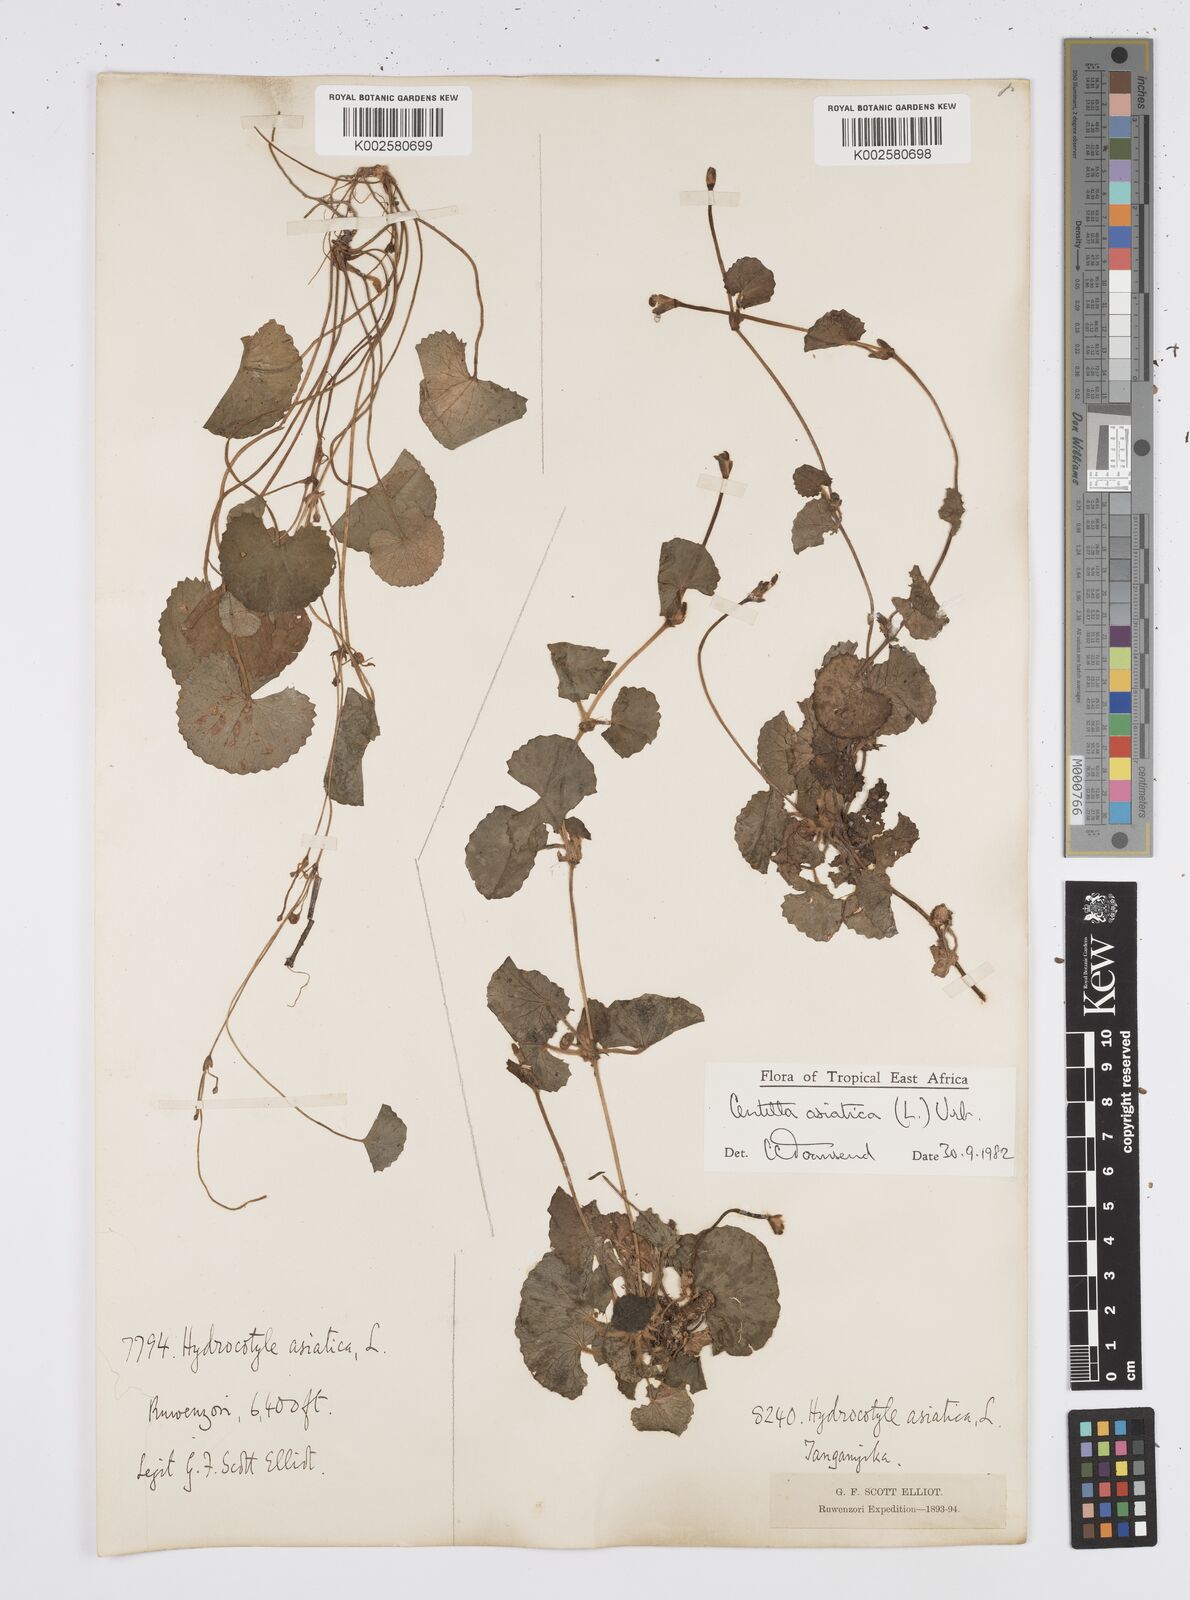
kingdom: Plantae
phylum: Tracheophyta
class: Magnoliopsida
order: Apiales
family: Apiaceae
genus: Centella
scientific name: Centella asiatica
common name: Spadeleaf
